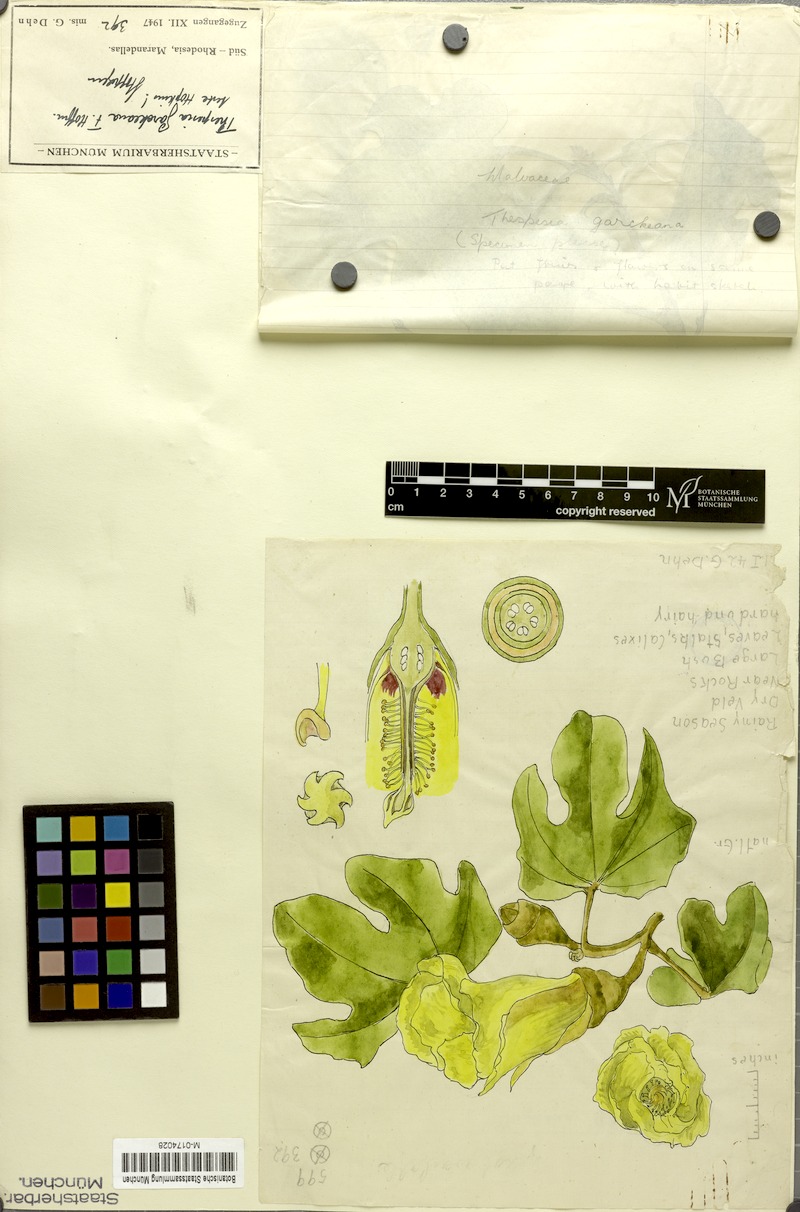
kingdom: Plantae
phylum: Tracheophyta
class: Magnoliopsida
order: Malvales
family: Malvaceae
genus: Thespesia
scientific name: Thespesia garckeana
